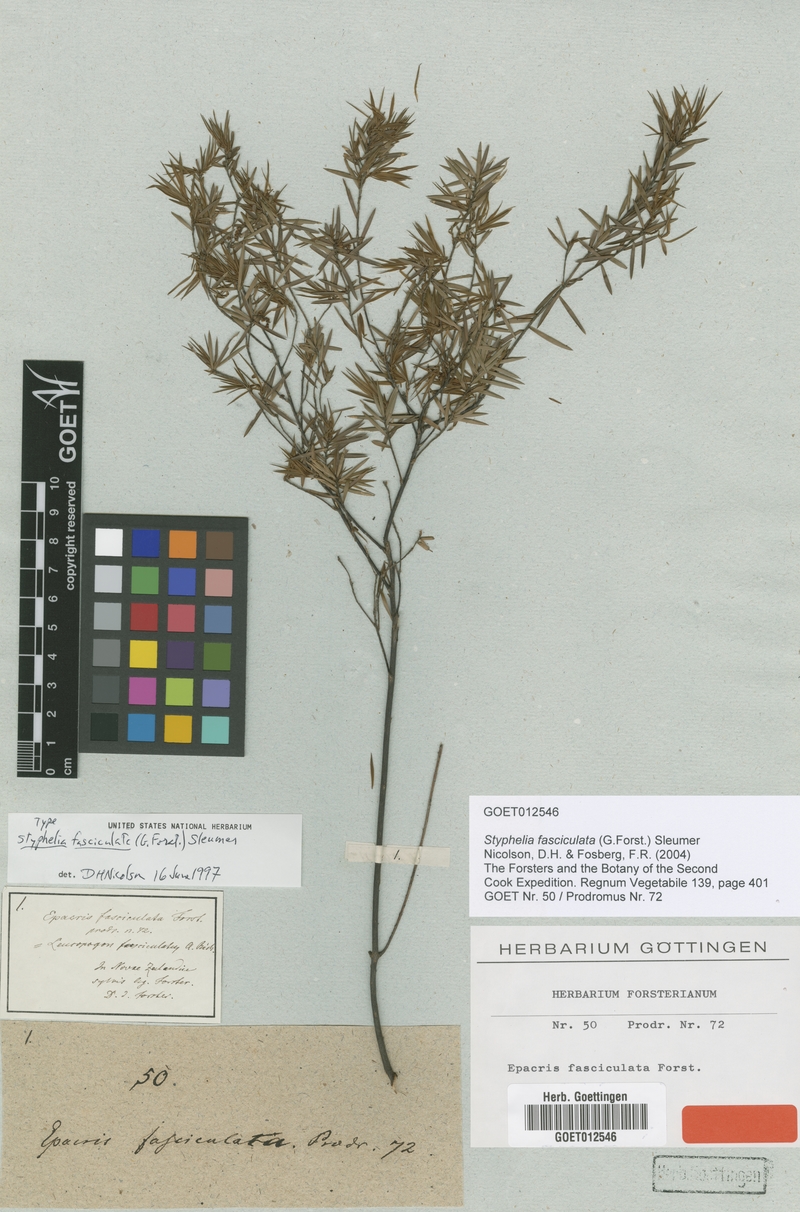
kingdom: Plantae
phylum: Tracheophyta
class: Magnoliopsida
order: Ericales
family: Ericaceae
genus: Leucopogon
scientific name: Leucopogon fasciculatus
